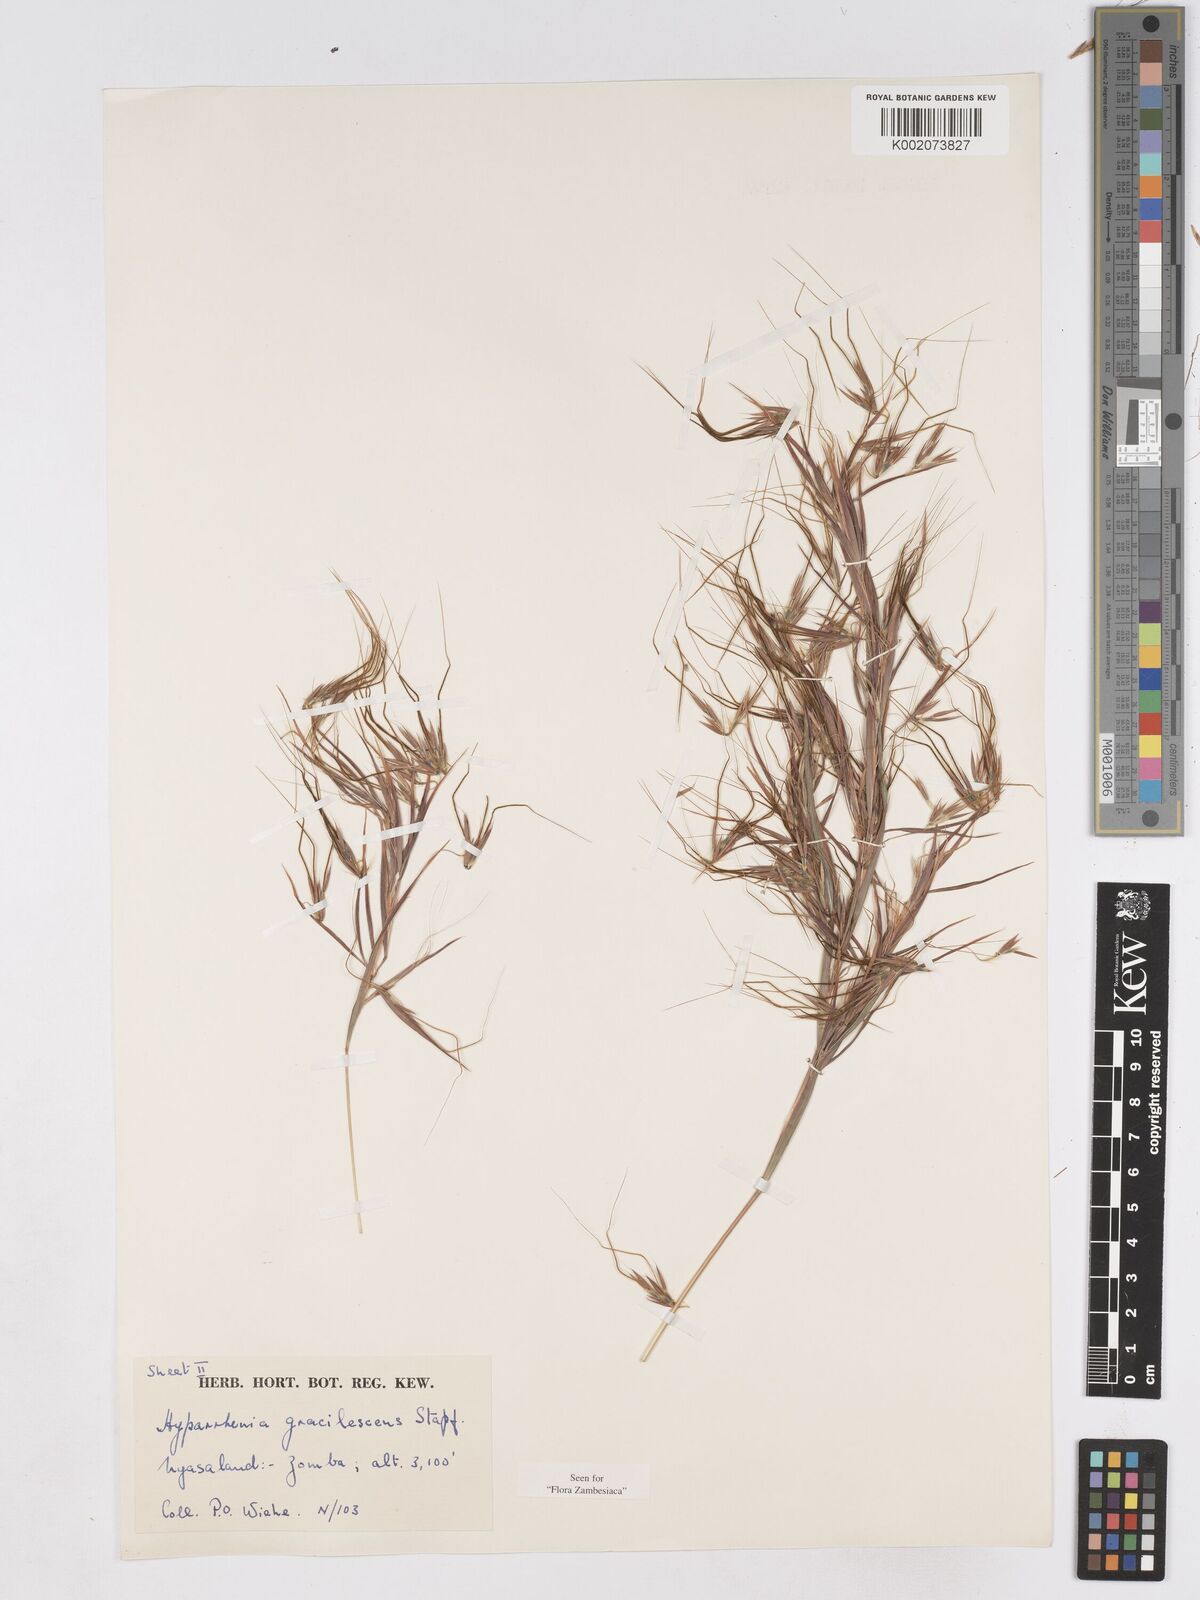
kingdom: Plantae
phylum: Tracheophyta
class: Liliopsida
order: Poales
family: Poaceae
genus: Hyparrhenia
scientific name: Hyparrhenia welwitschii
